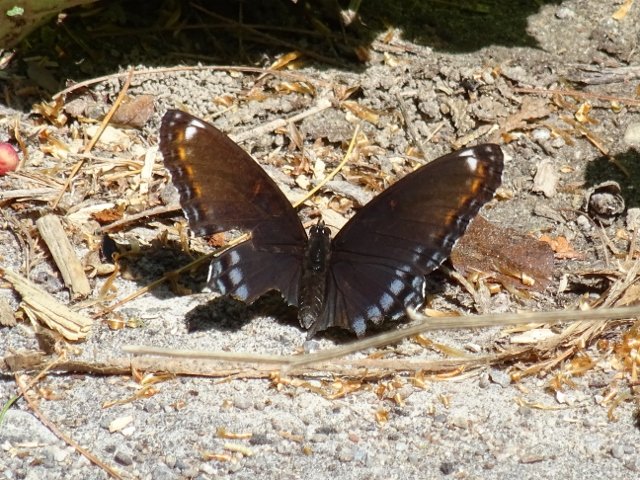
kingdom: Animalia
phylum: Arthropoda
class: Insecta
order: Lepidoptera
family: Nymphalidae
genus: Limenitis
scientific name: Limenitis astyanax
